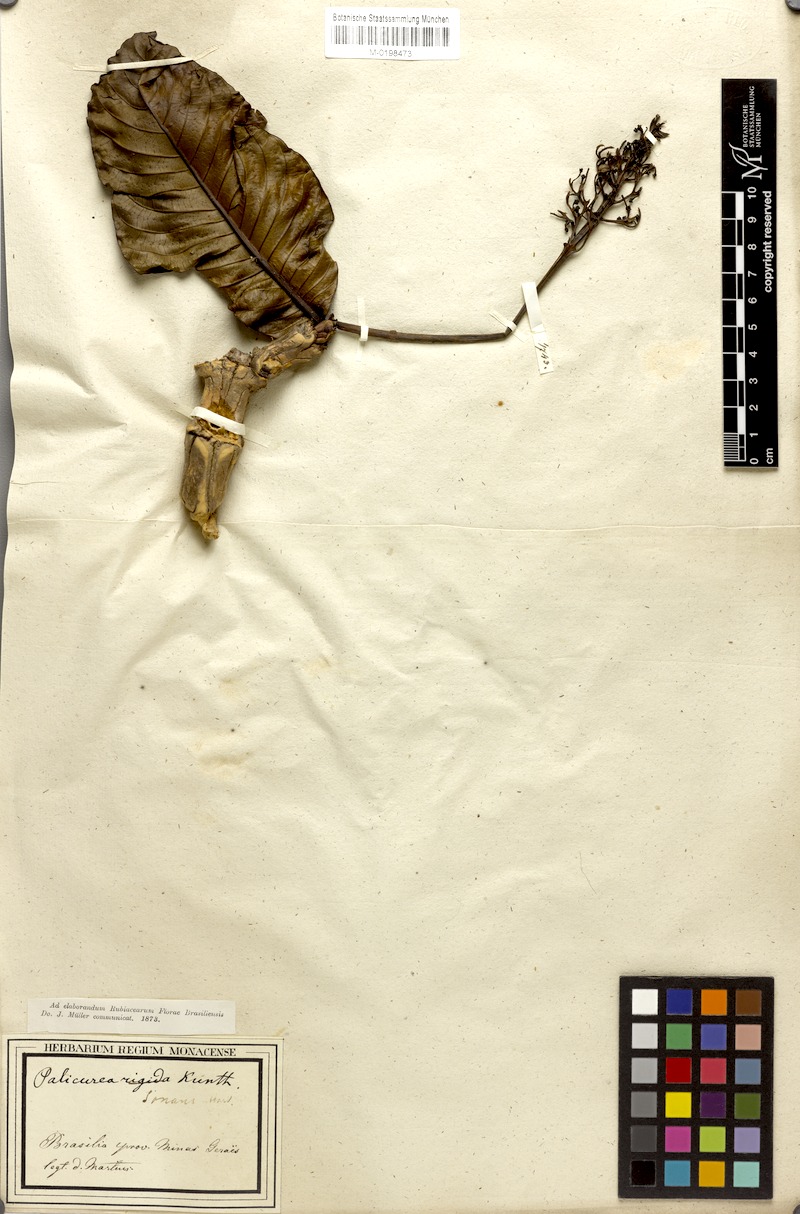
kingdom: Plantae
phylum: Tracheophyta
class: Magnoliopsida
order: Gentianales
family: Rubiaceae
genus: Palicourea
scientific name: Palicourea rigida
